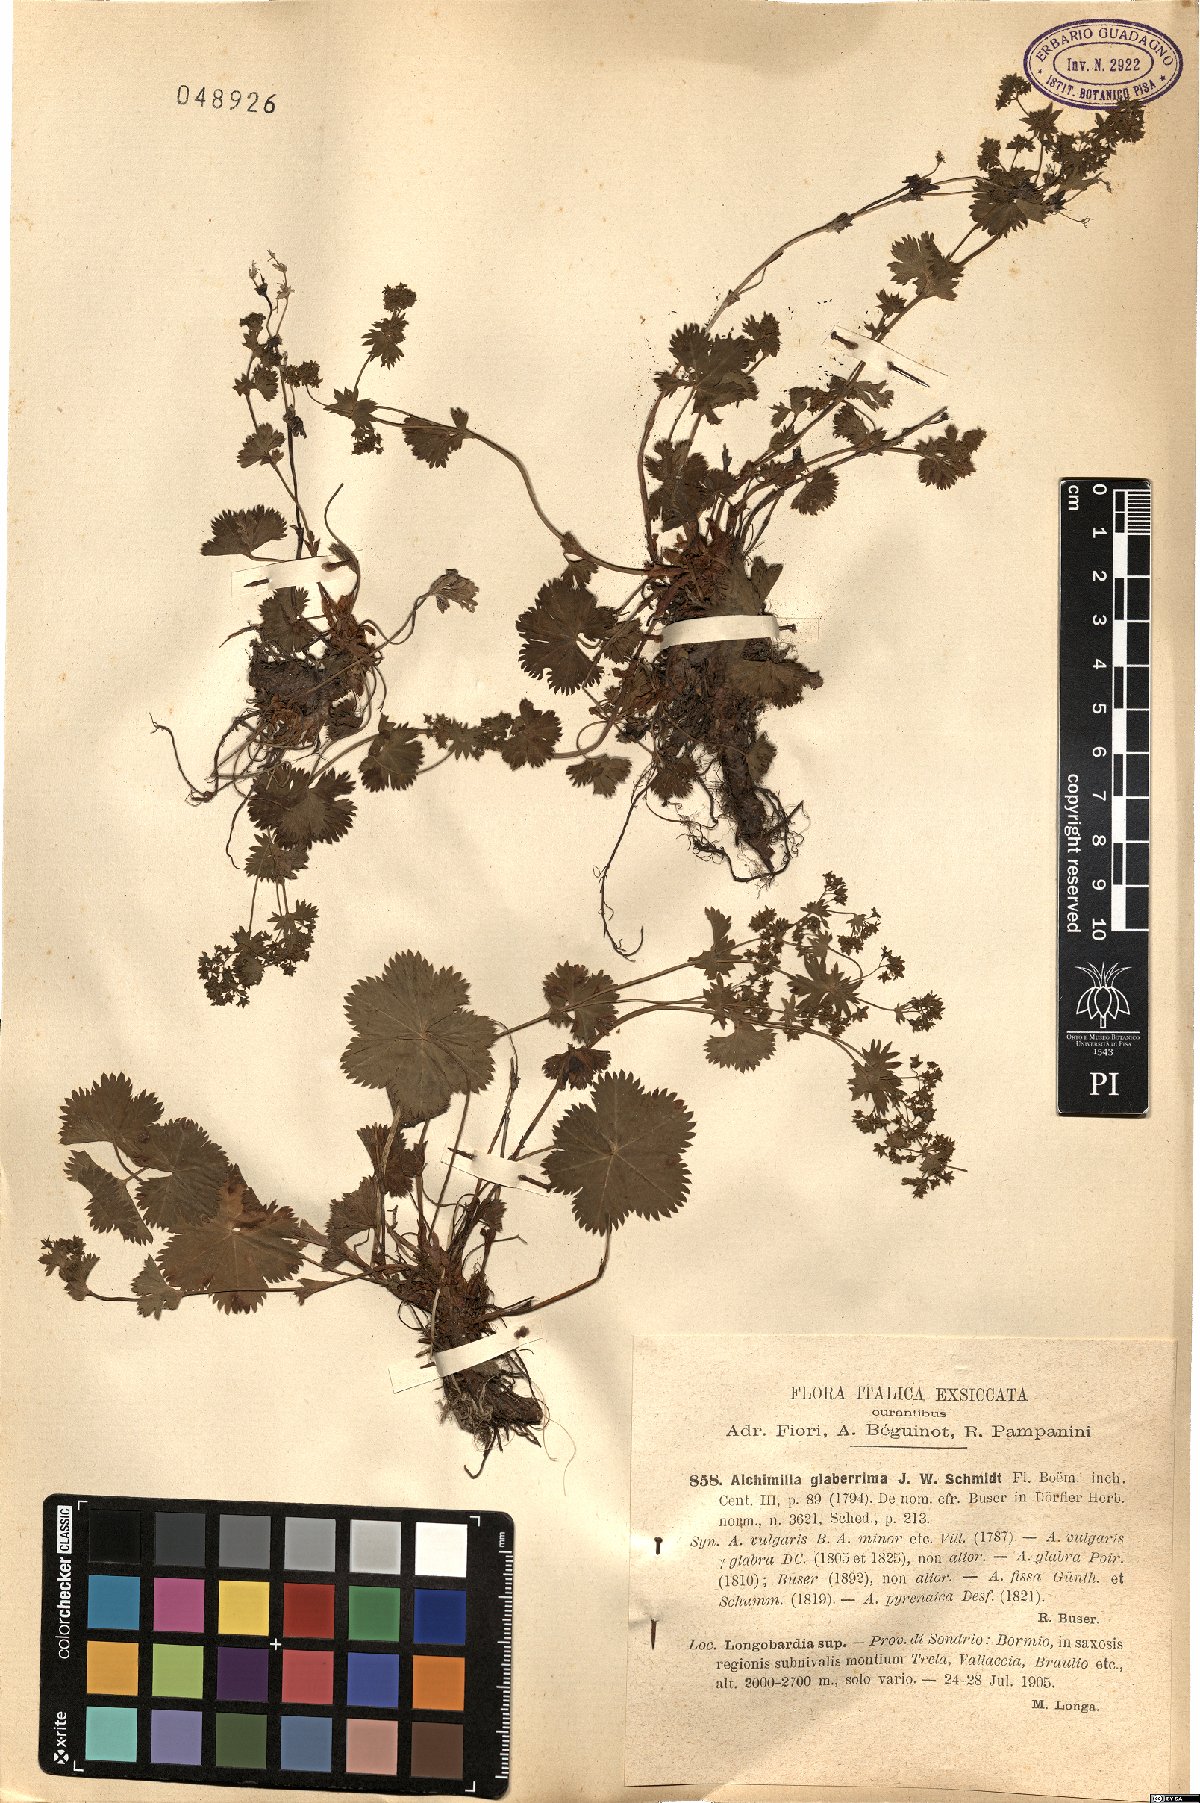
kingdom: Plantae
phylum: Tracheophyta
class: Magnoliopsida
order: Rosales
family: Rosaceae
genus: Alchemilla
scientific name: Alchemilla fissa
